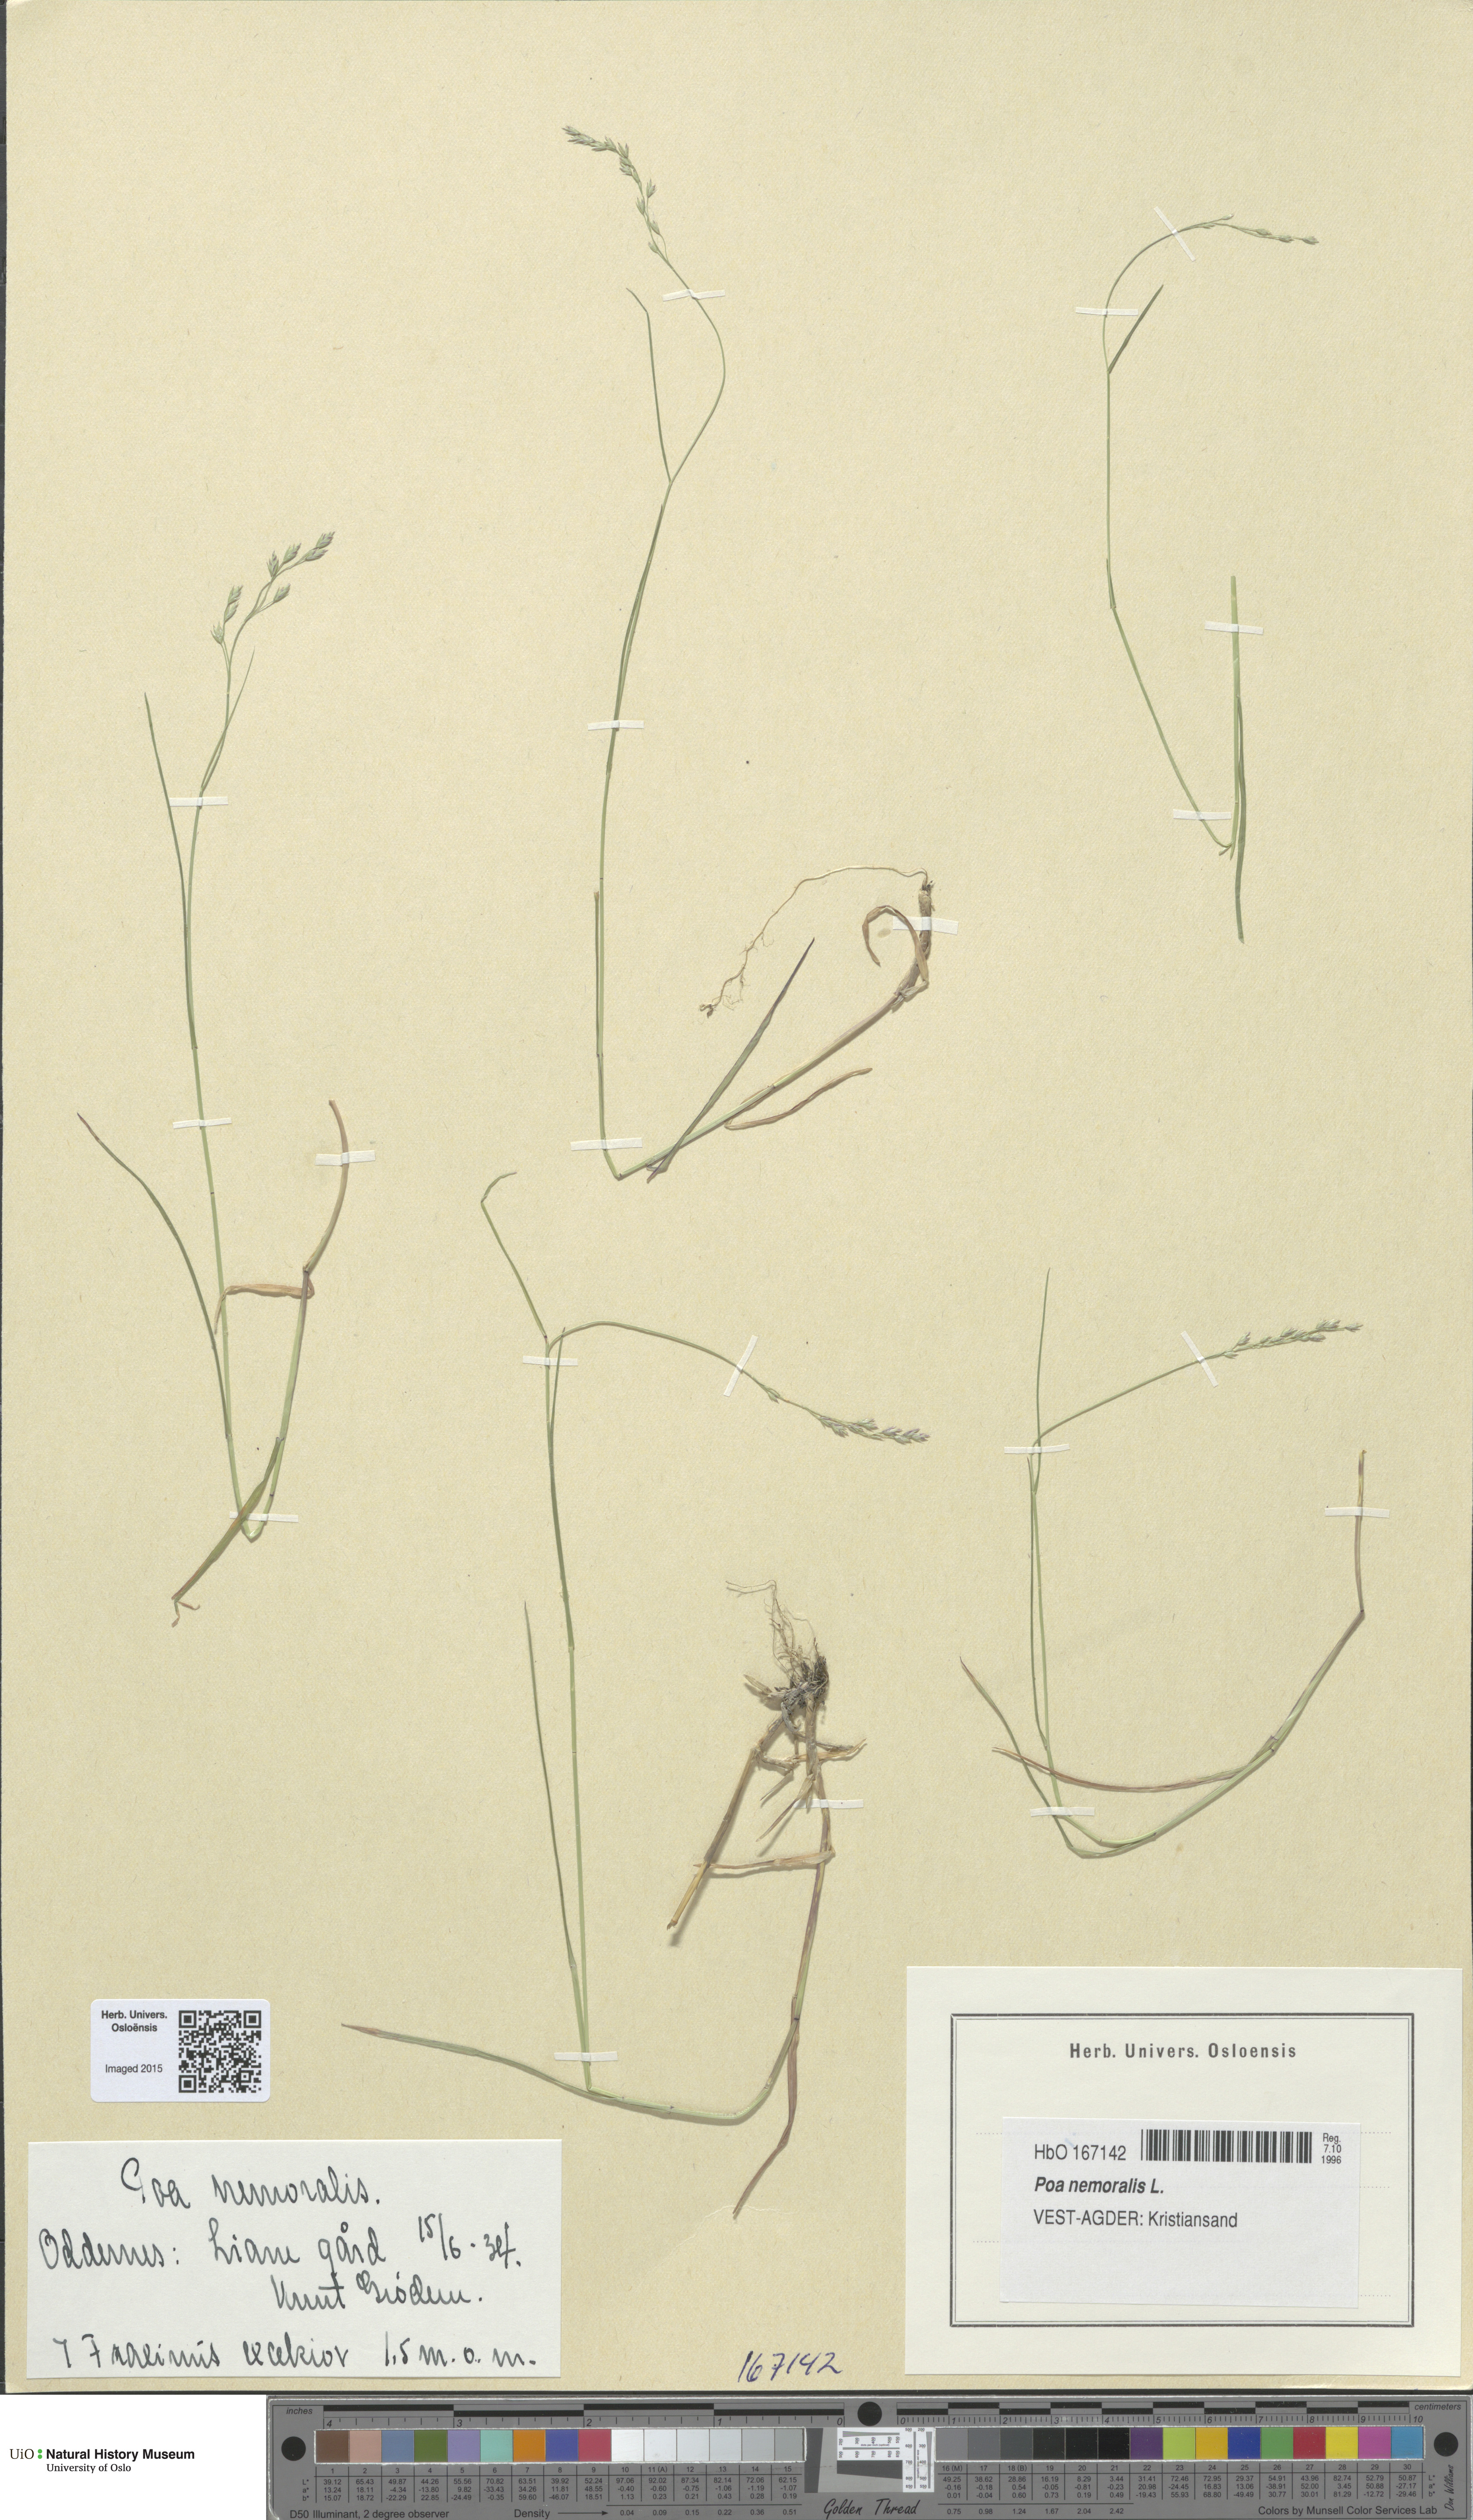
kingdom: Plantae
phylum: Tracheophyta
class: Liliopsida
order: Poales
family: Poaceae
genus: Poa
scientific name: Poa nemoralis
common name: Wood bluegrass
